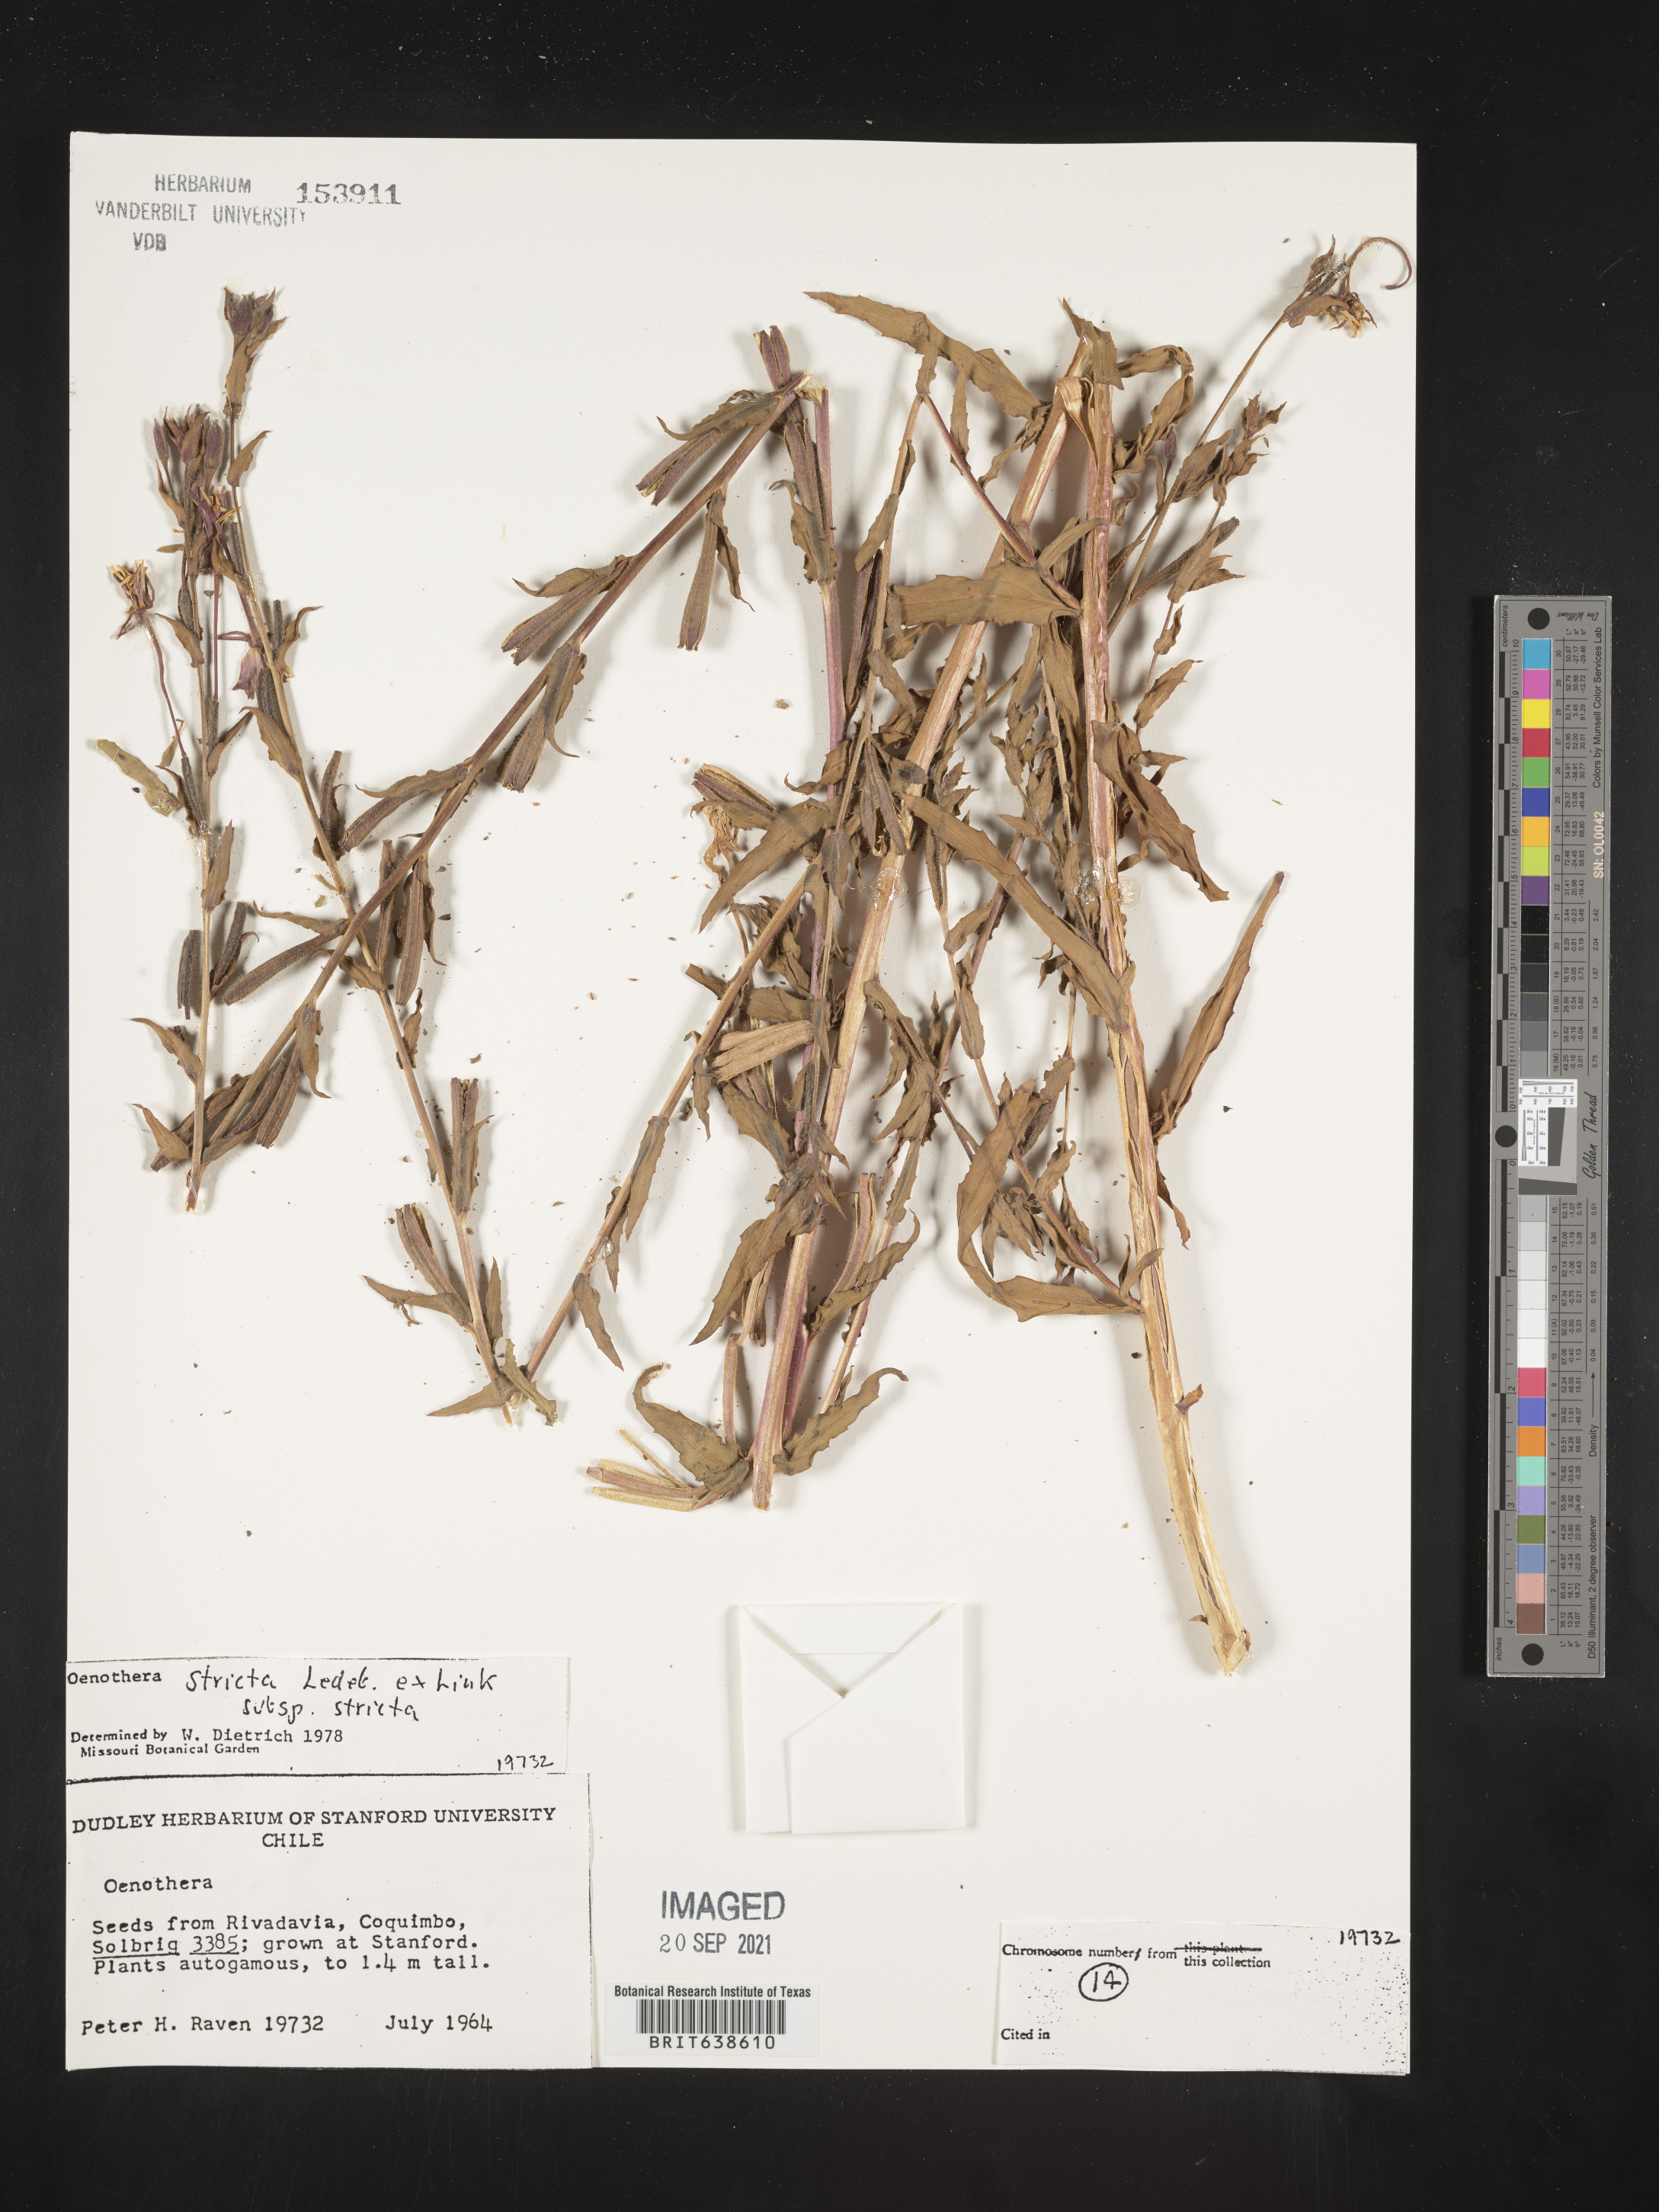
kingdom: Plantae
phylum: Tracheophyta
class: Magnoliopsida
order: Myrtales
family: Onagraceae
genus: Oenothera
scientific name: Oenothera
